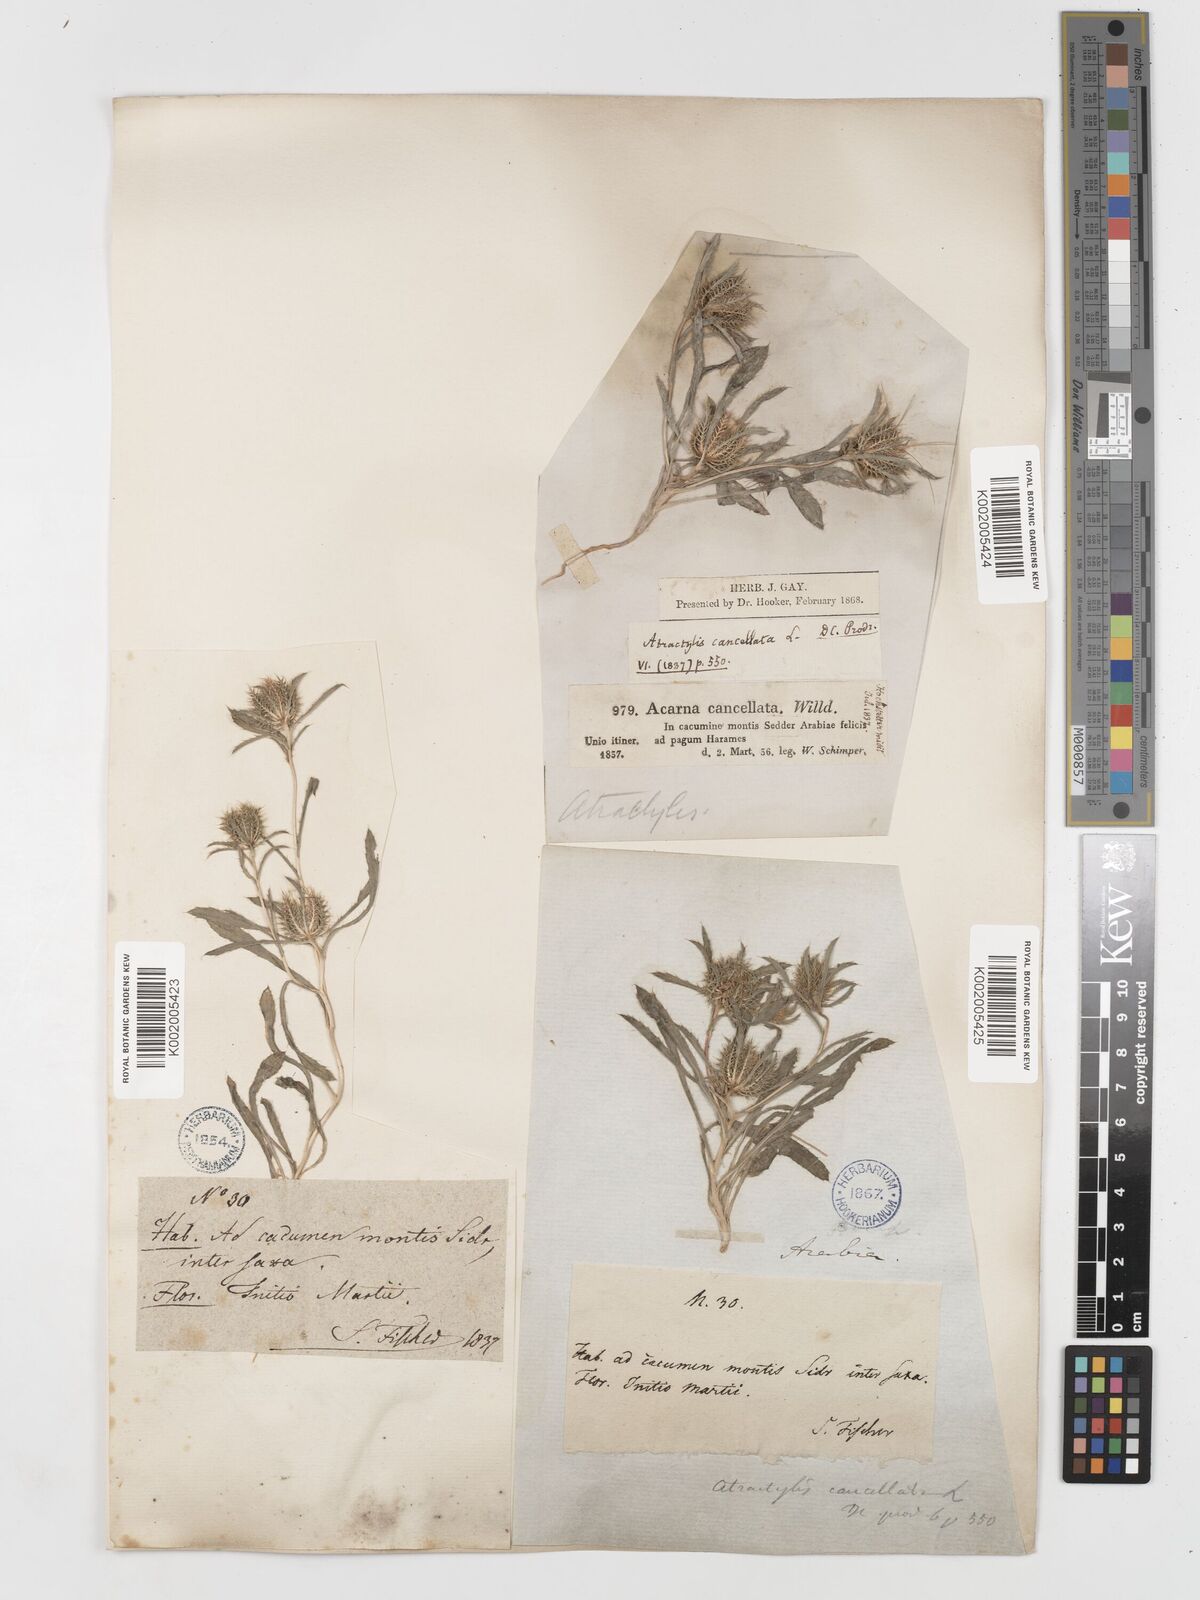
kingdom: Plantae
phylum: Tracheophyta
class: Magnoliopsida
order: Asterales
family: Asteraceae
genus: Atractylis
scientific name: Atractylis cancellata
